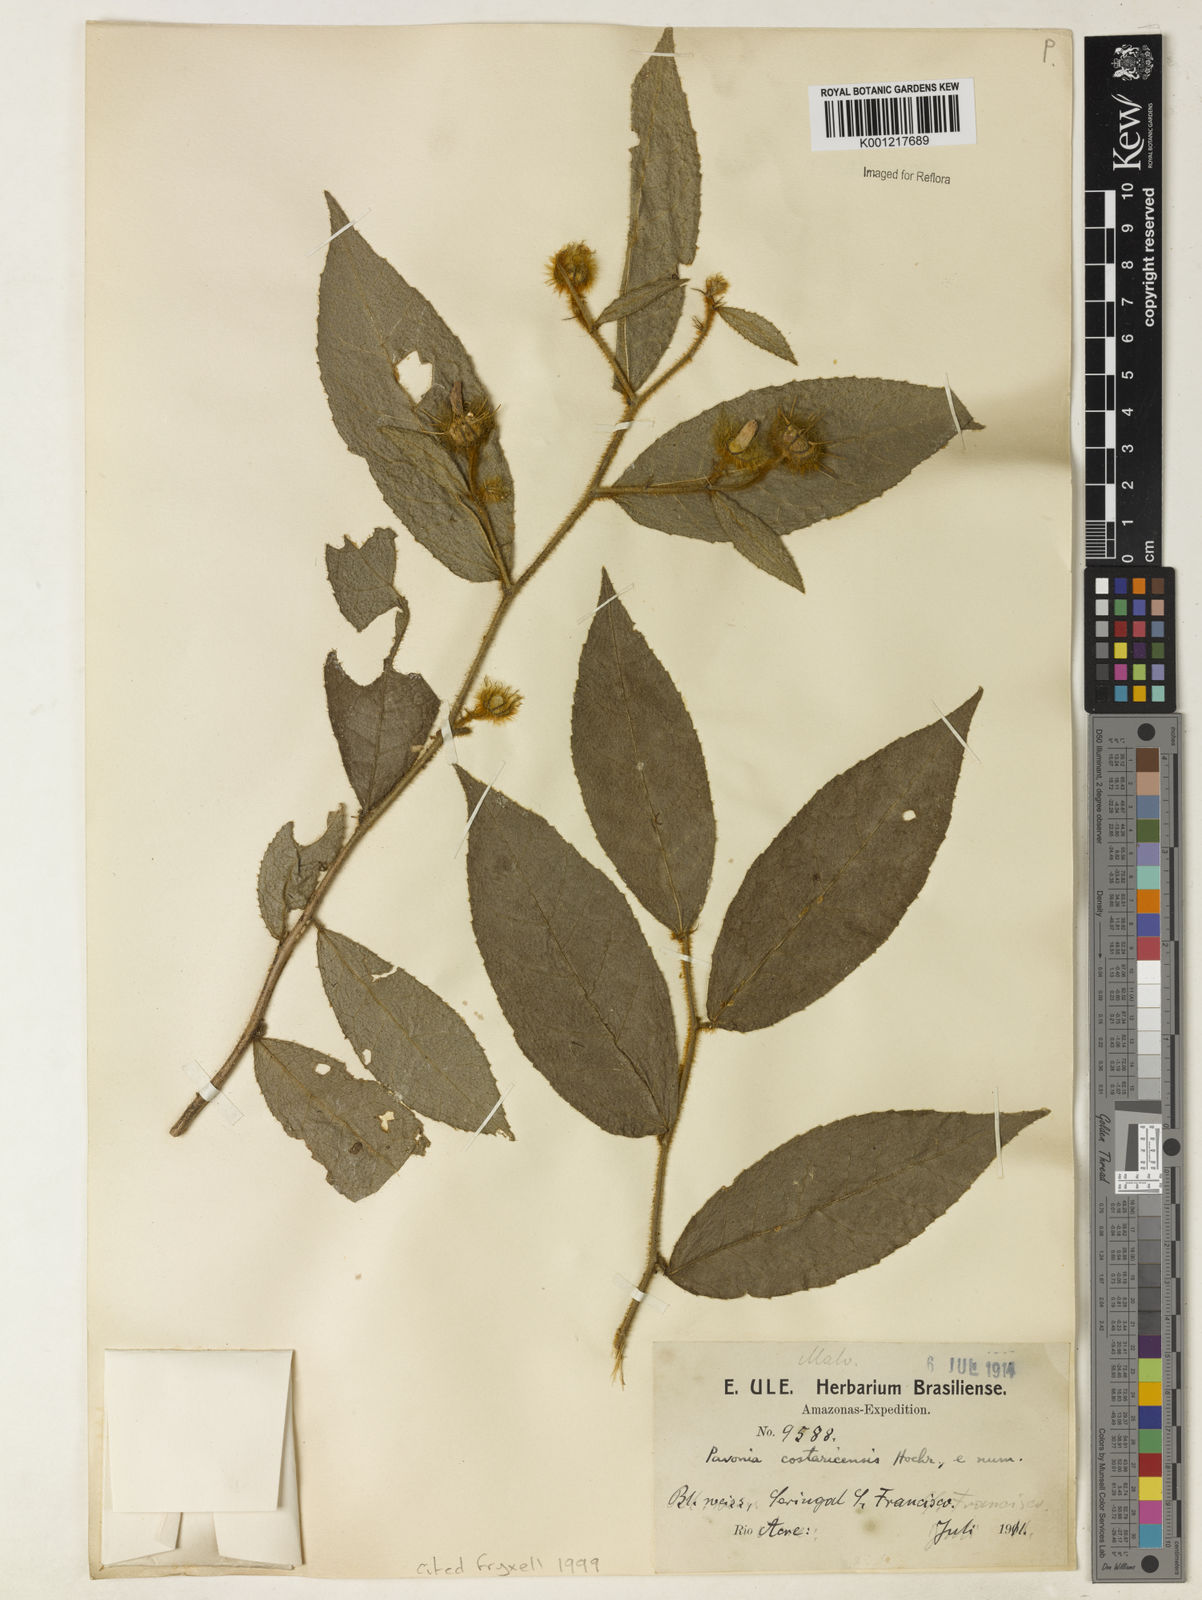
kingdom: Plantae
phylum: Tracheophyta
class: Magnoliopsida
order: Malvales
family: Malvaceae
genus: Pavonia
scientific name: Pavonia oxyphyllaria
